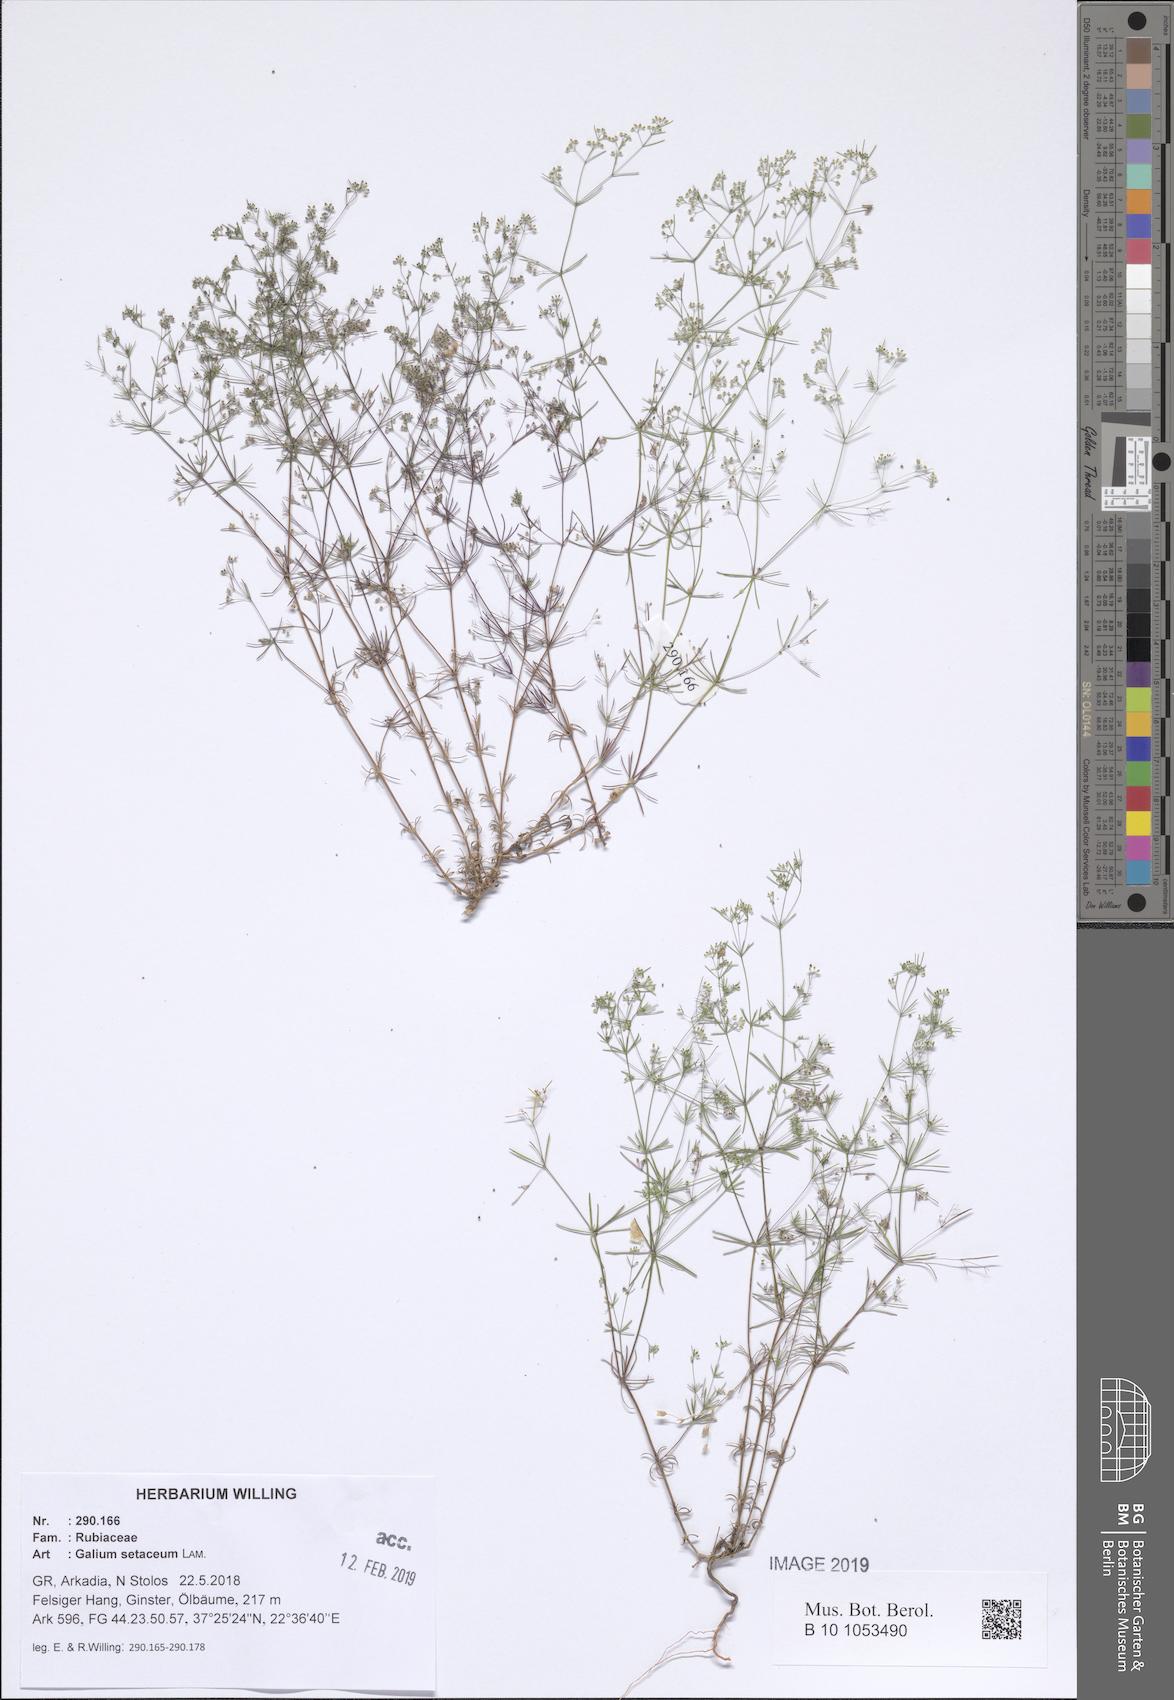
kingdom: Plantae
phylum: Tracheophyta
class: Magnoliopsida
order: Gentianales
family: Rubiaceae
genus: Galium
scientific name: Galium setaceum
